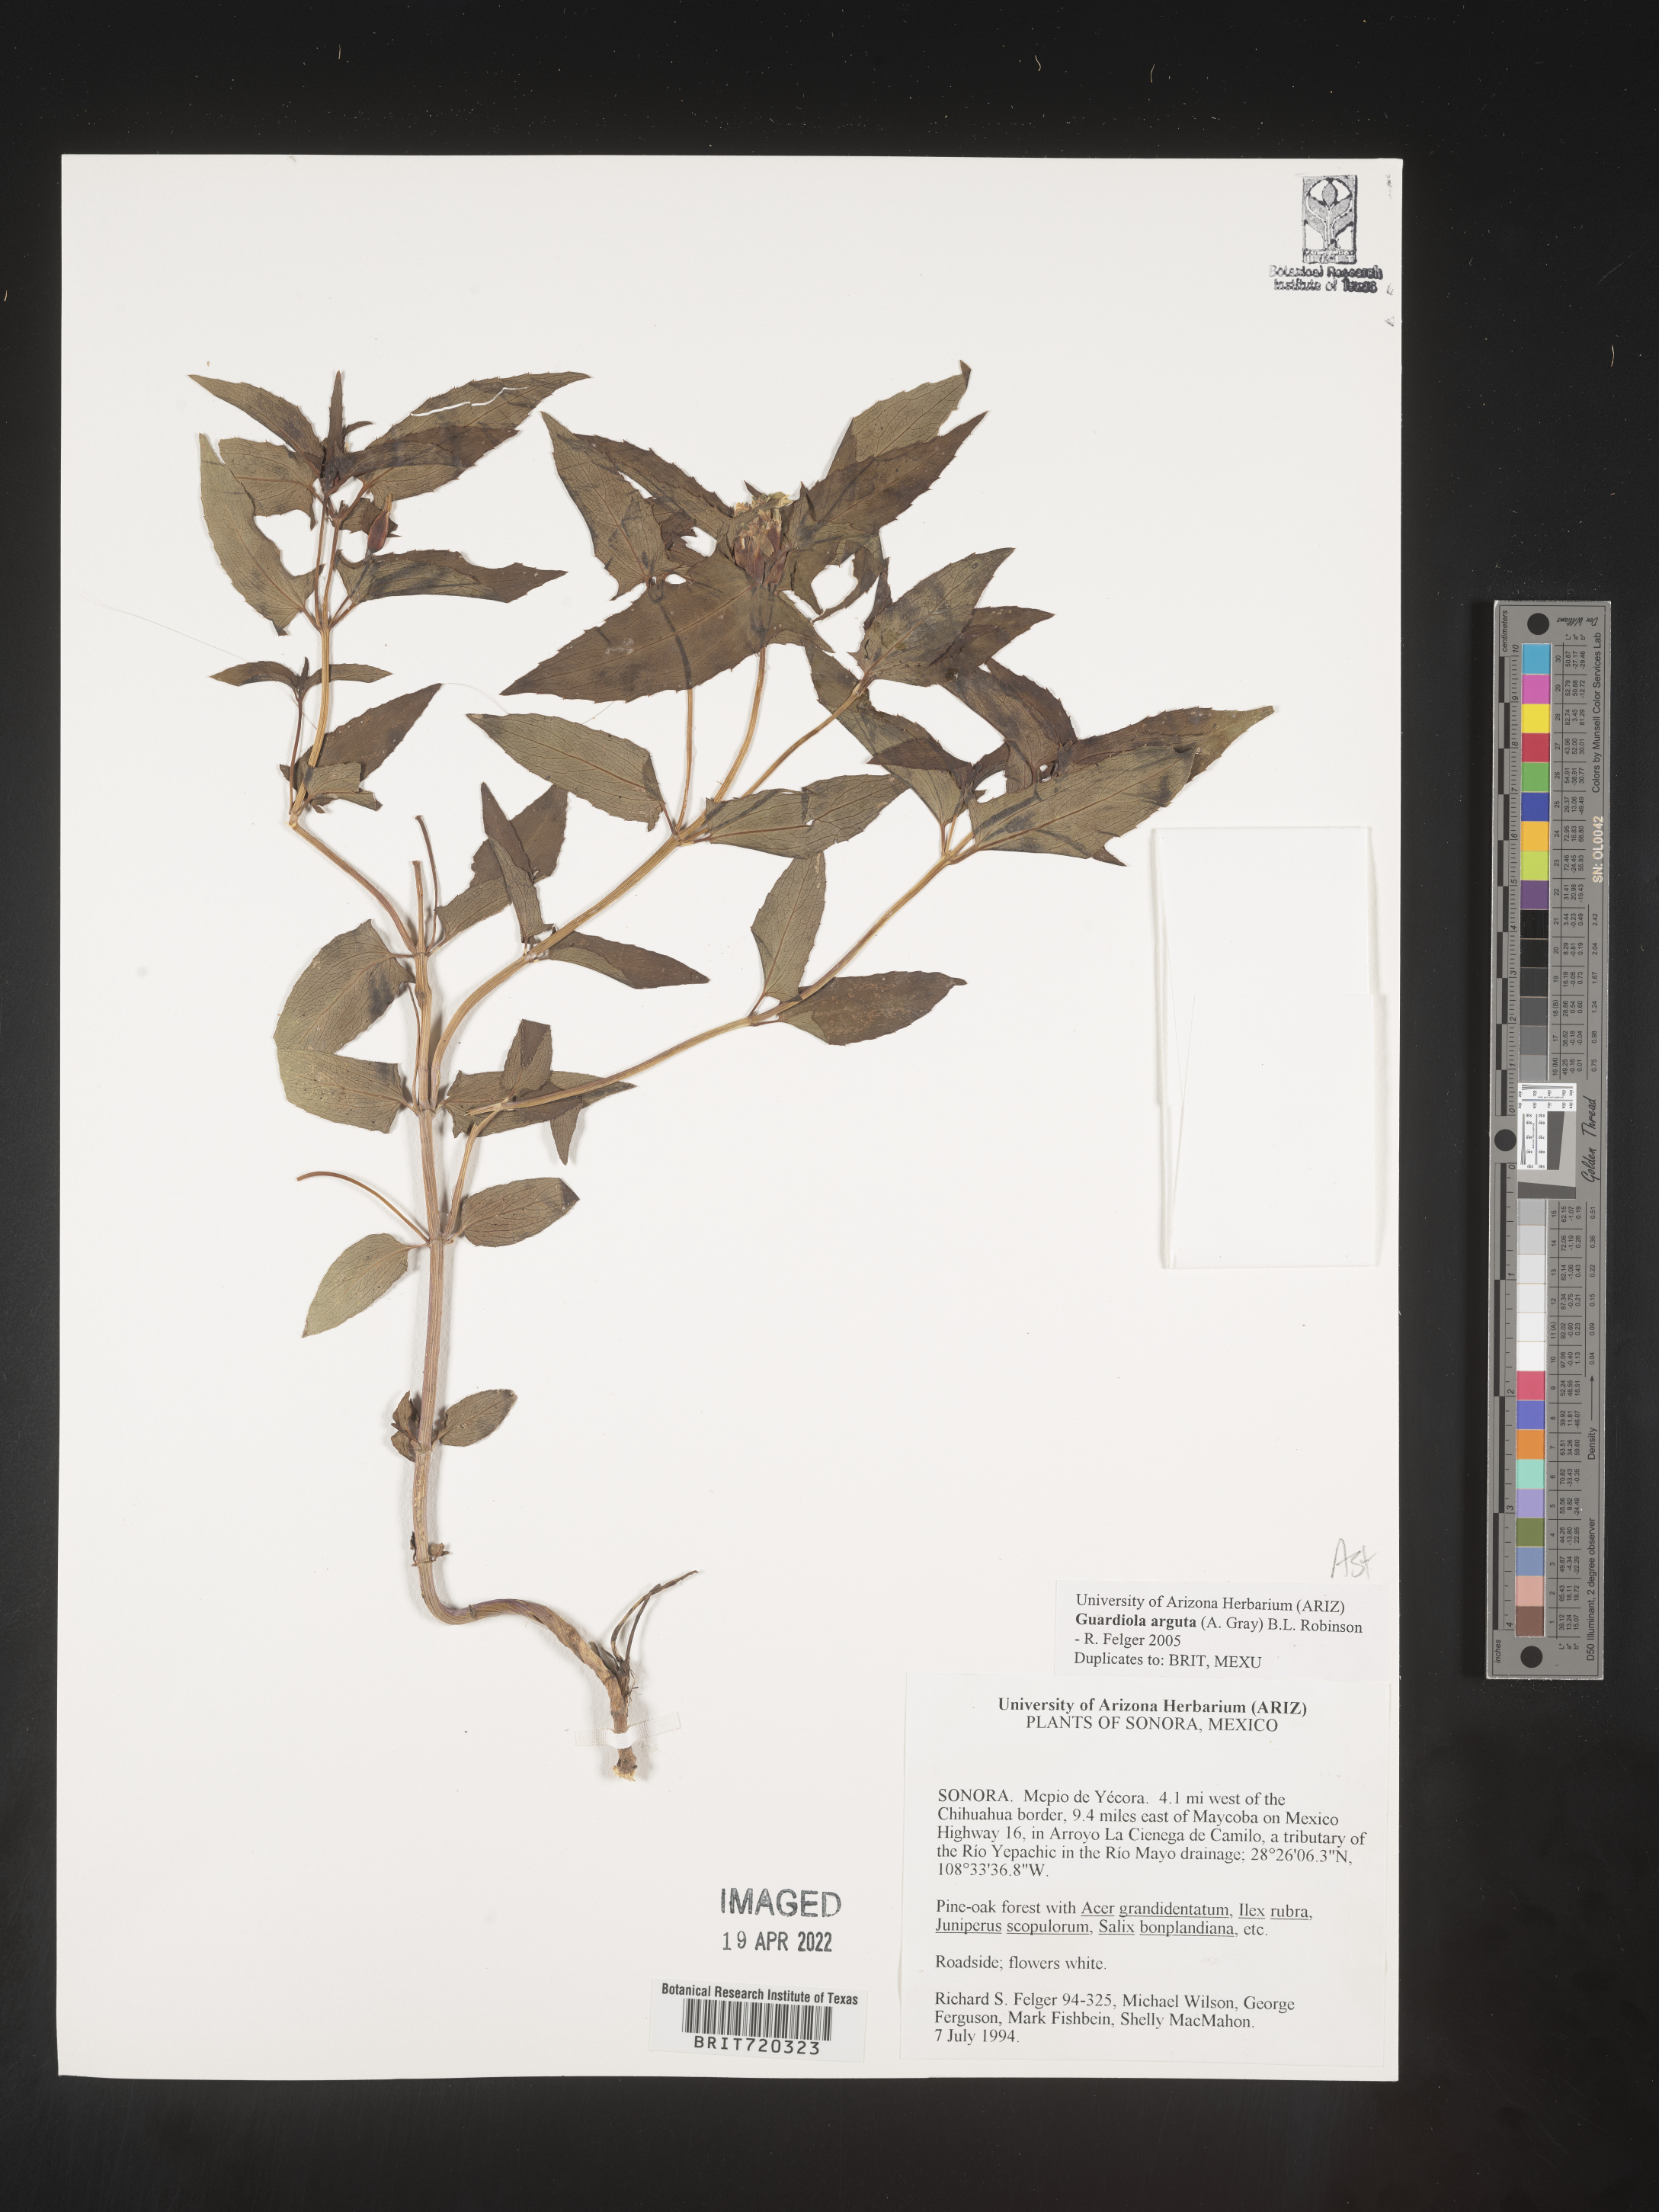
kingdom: Plantae
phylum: Tracheophyta
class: Magnoliopsida
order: Asterales
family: Asteraceae
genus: Guardiola
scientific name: Guardiola
